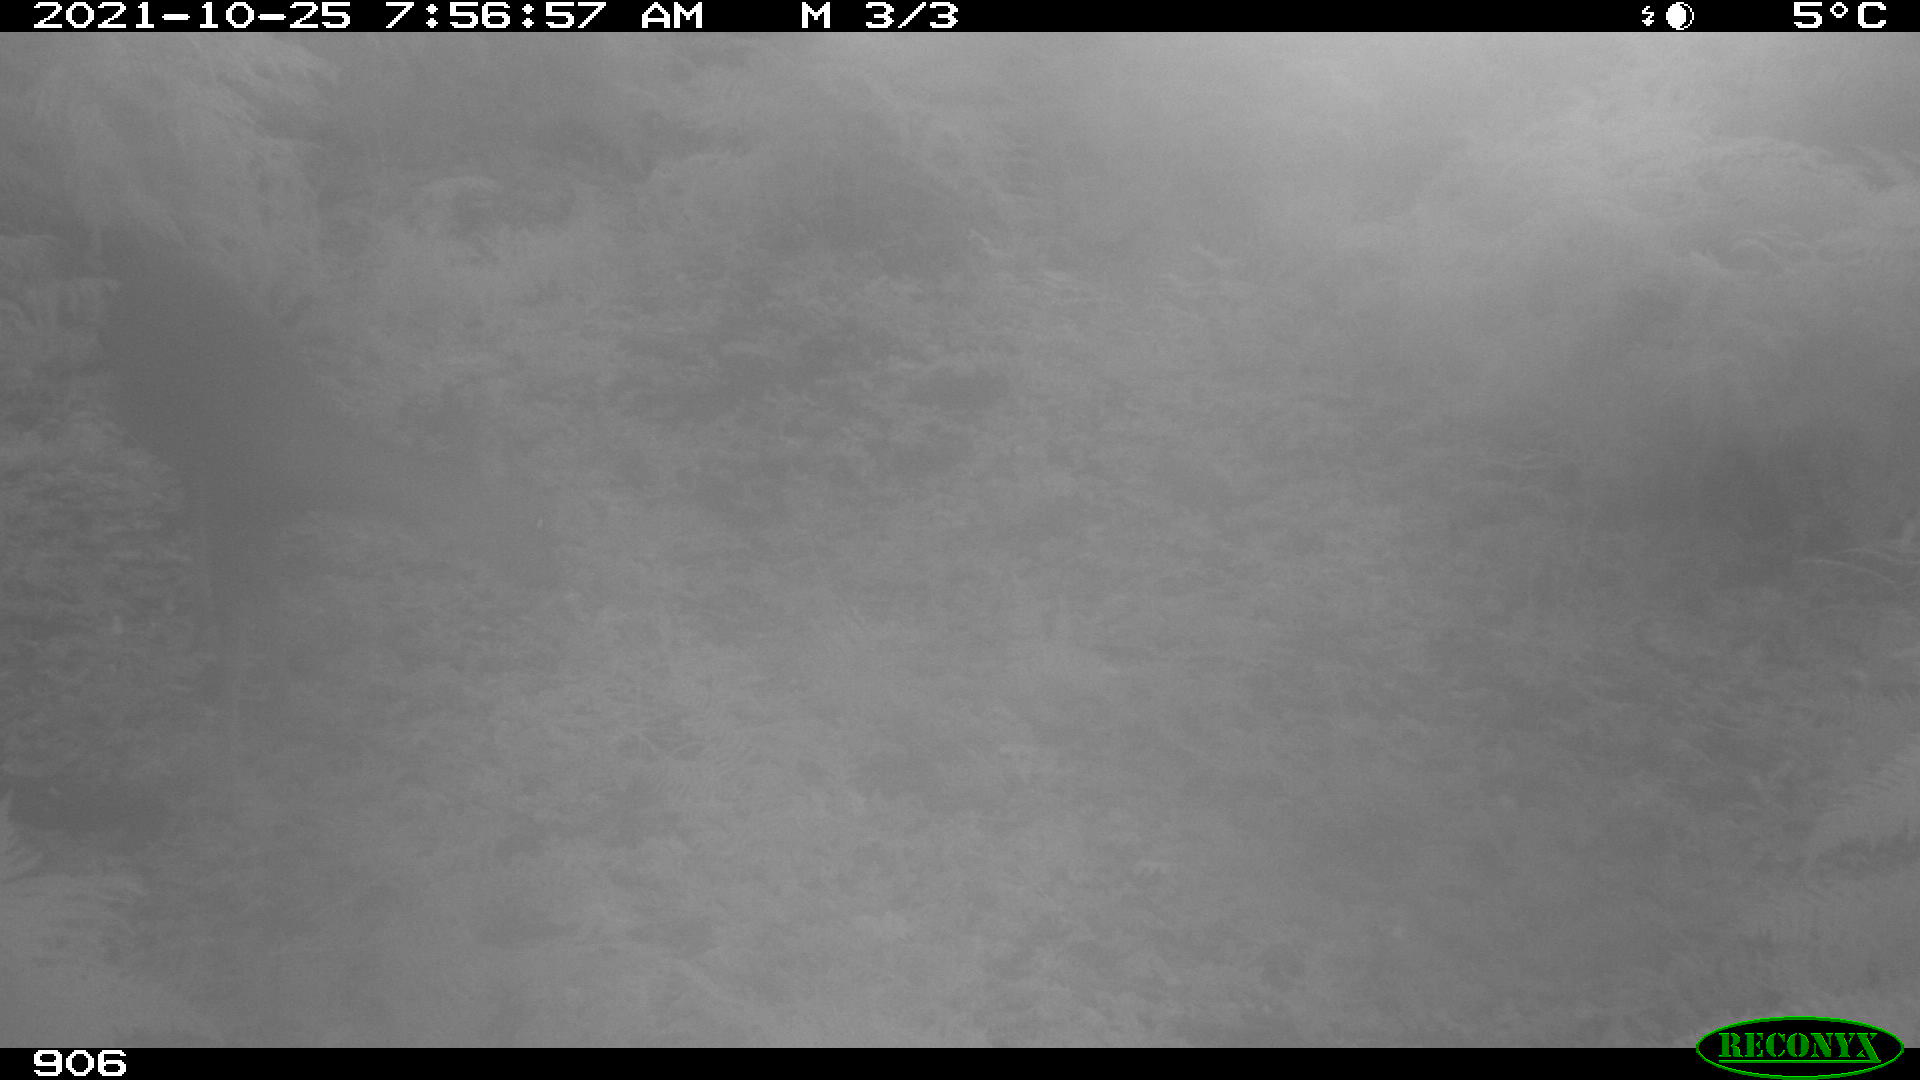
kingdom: Animalia
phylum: Chordata
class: Mammalia
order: Artiodactyla
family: Cervidae
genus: Capreolus
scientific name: Capreolus capreolus
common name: Western roe deer
